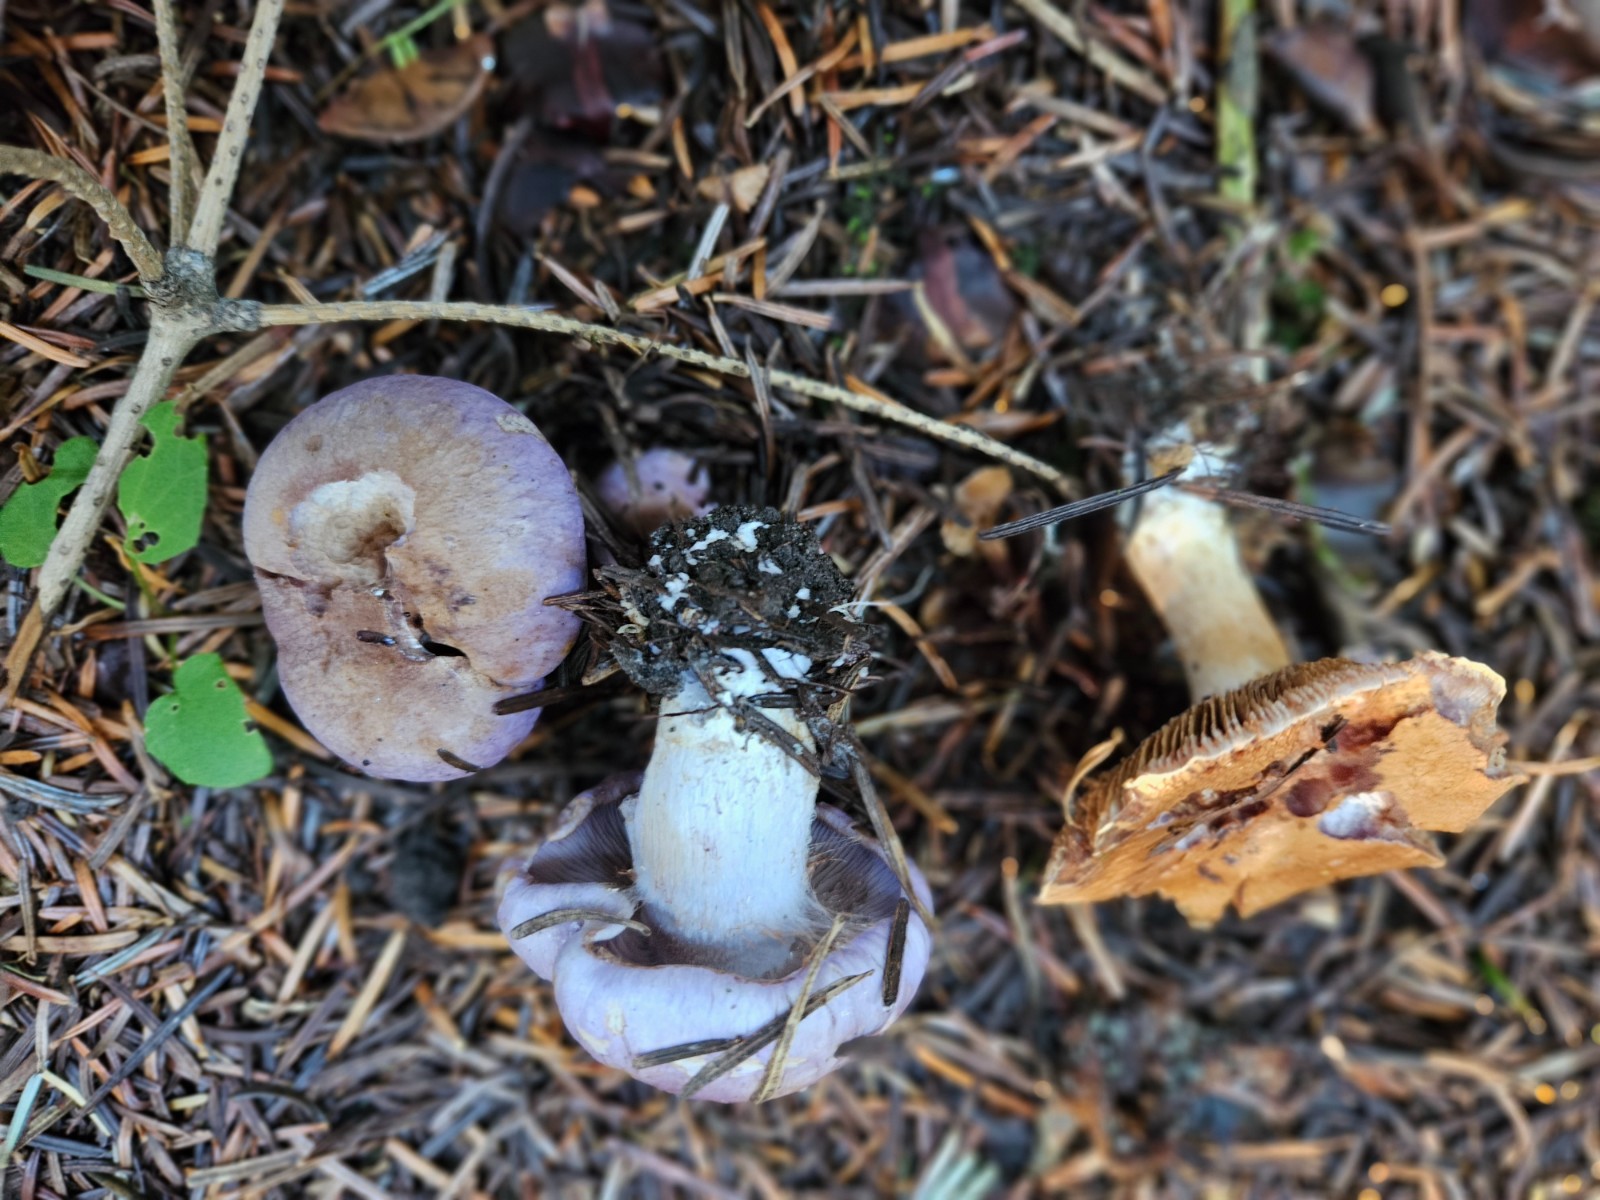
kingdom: Fungi
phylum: Basidiomycota
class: Agaricomycetes
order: Agaricales
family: Cortinariaceae
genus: Phlegmacium
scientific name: Phlegmacium eliae
